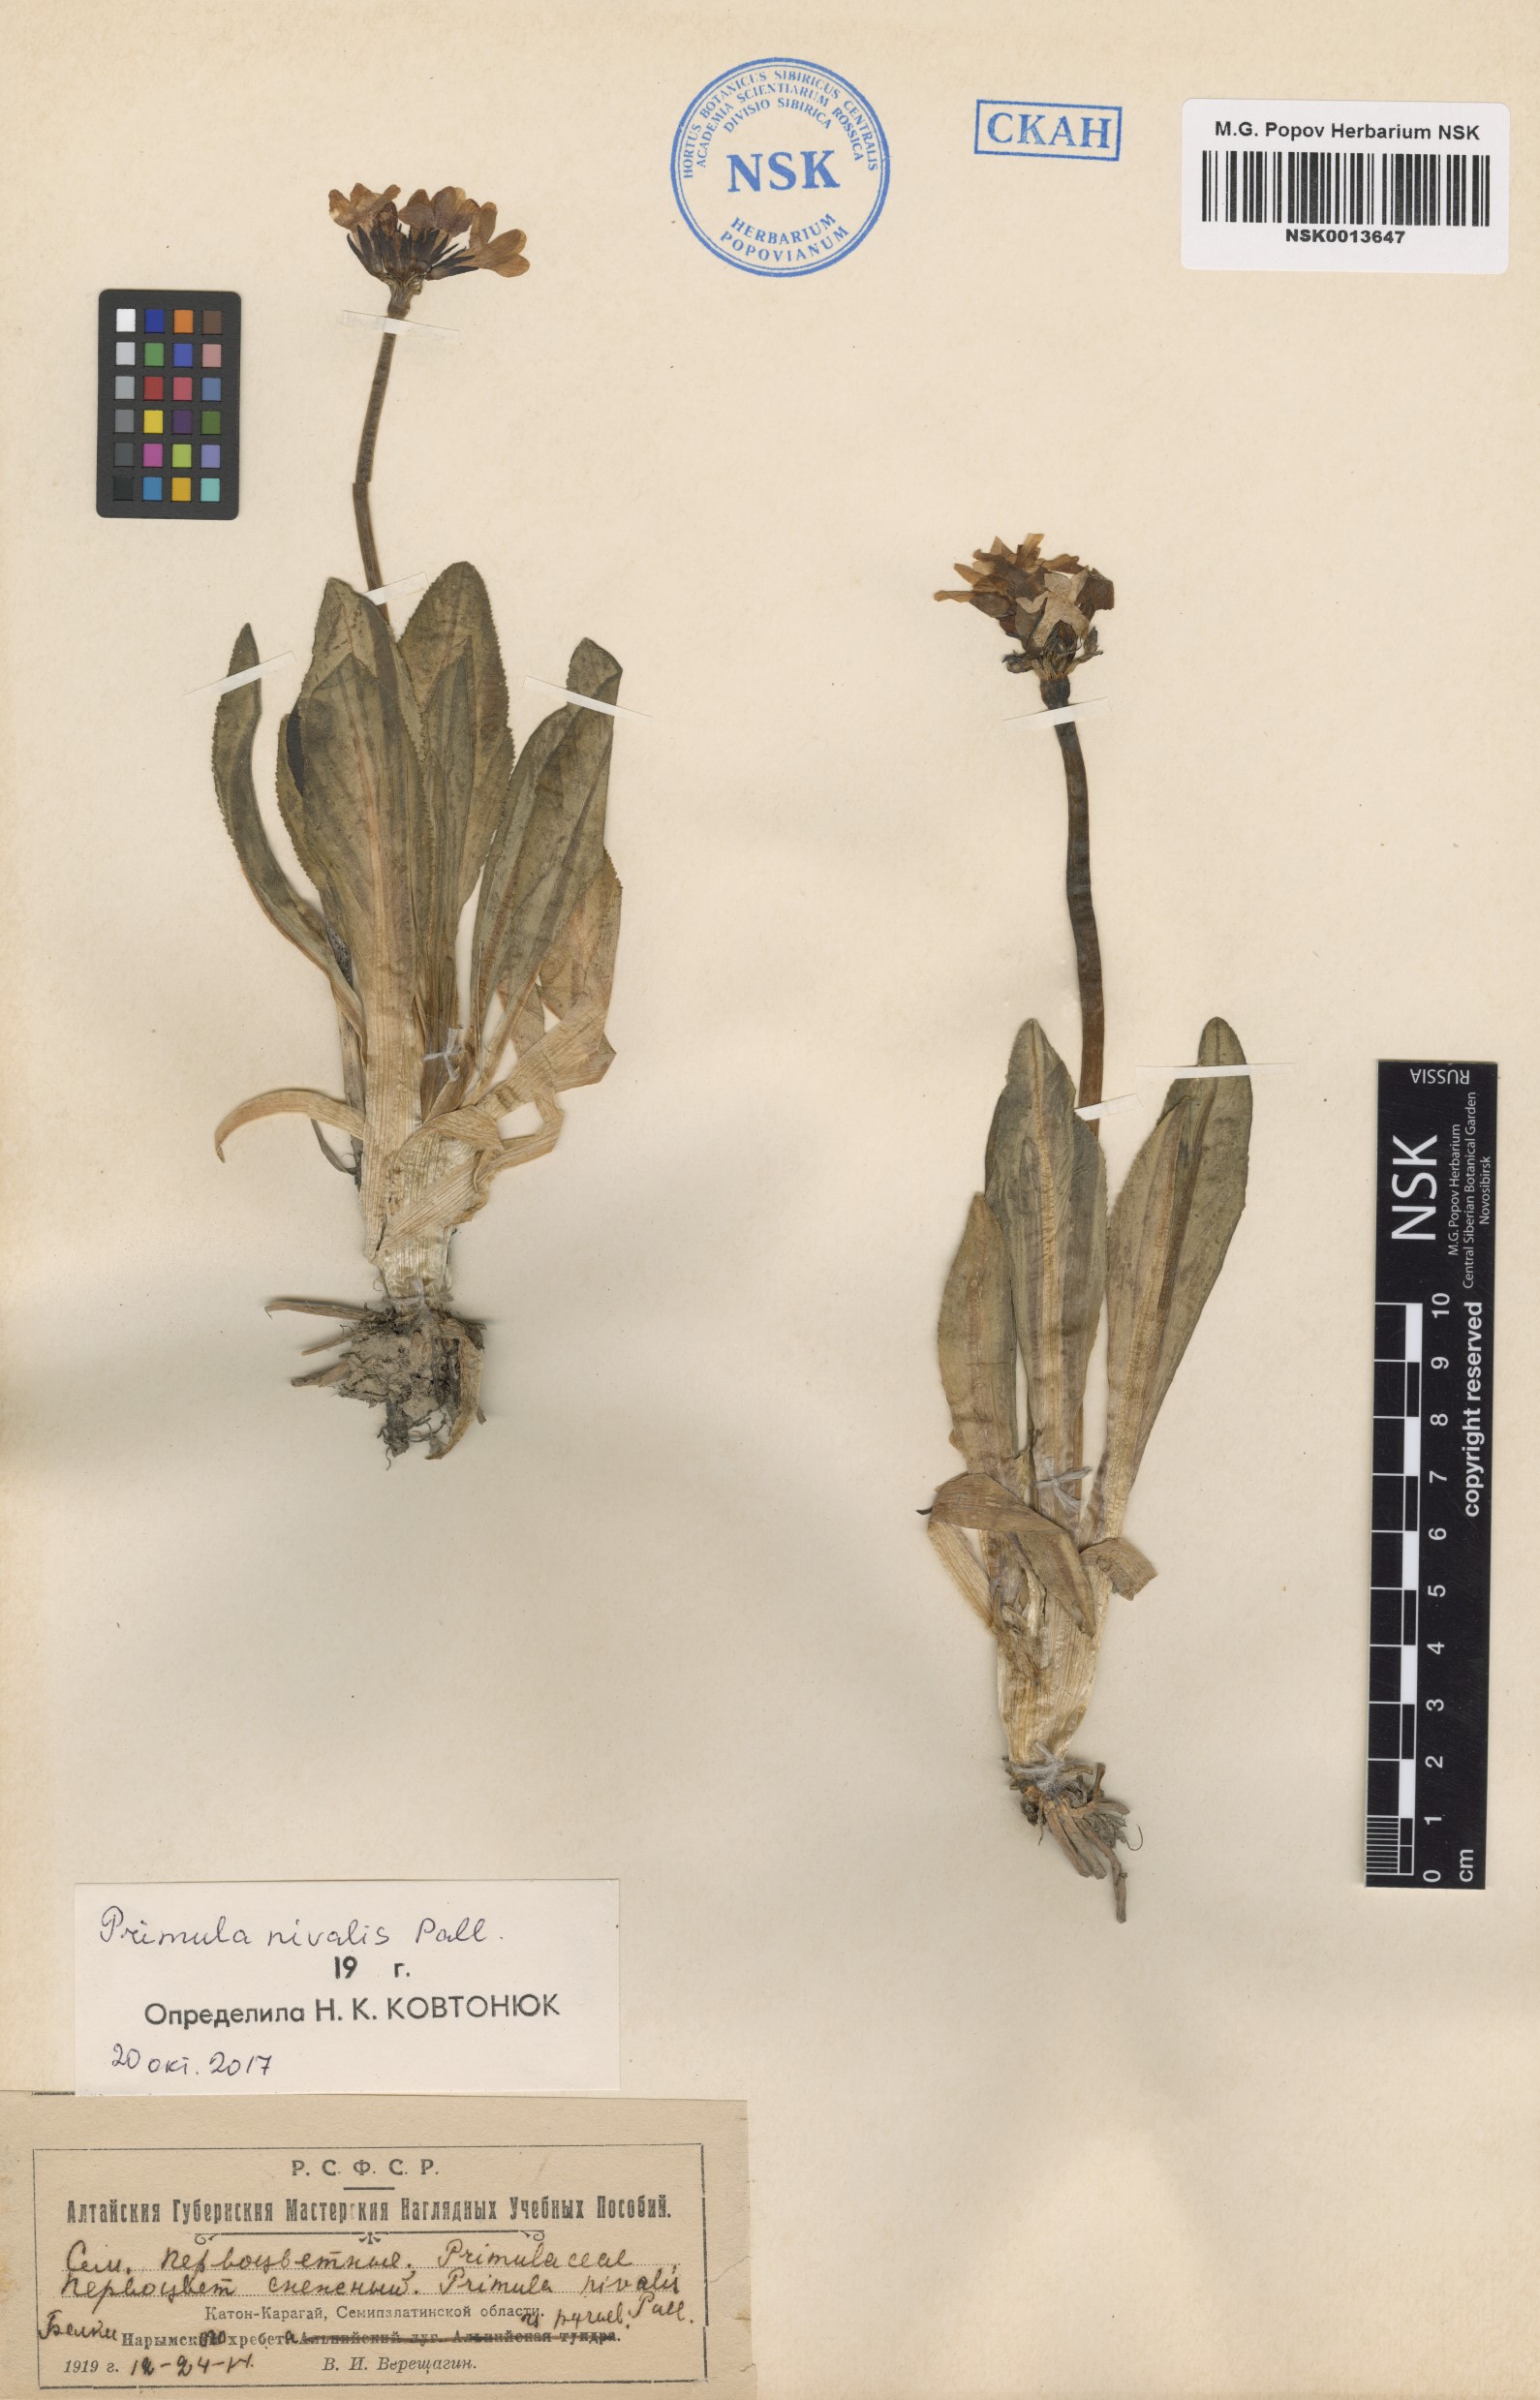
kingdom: Plantae
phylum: Tracheophyta
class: Magnoliopsida
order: Ericales
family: Primulaceae
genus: Primula
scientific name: Primula nivalis
